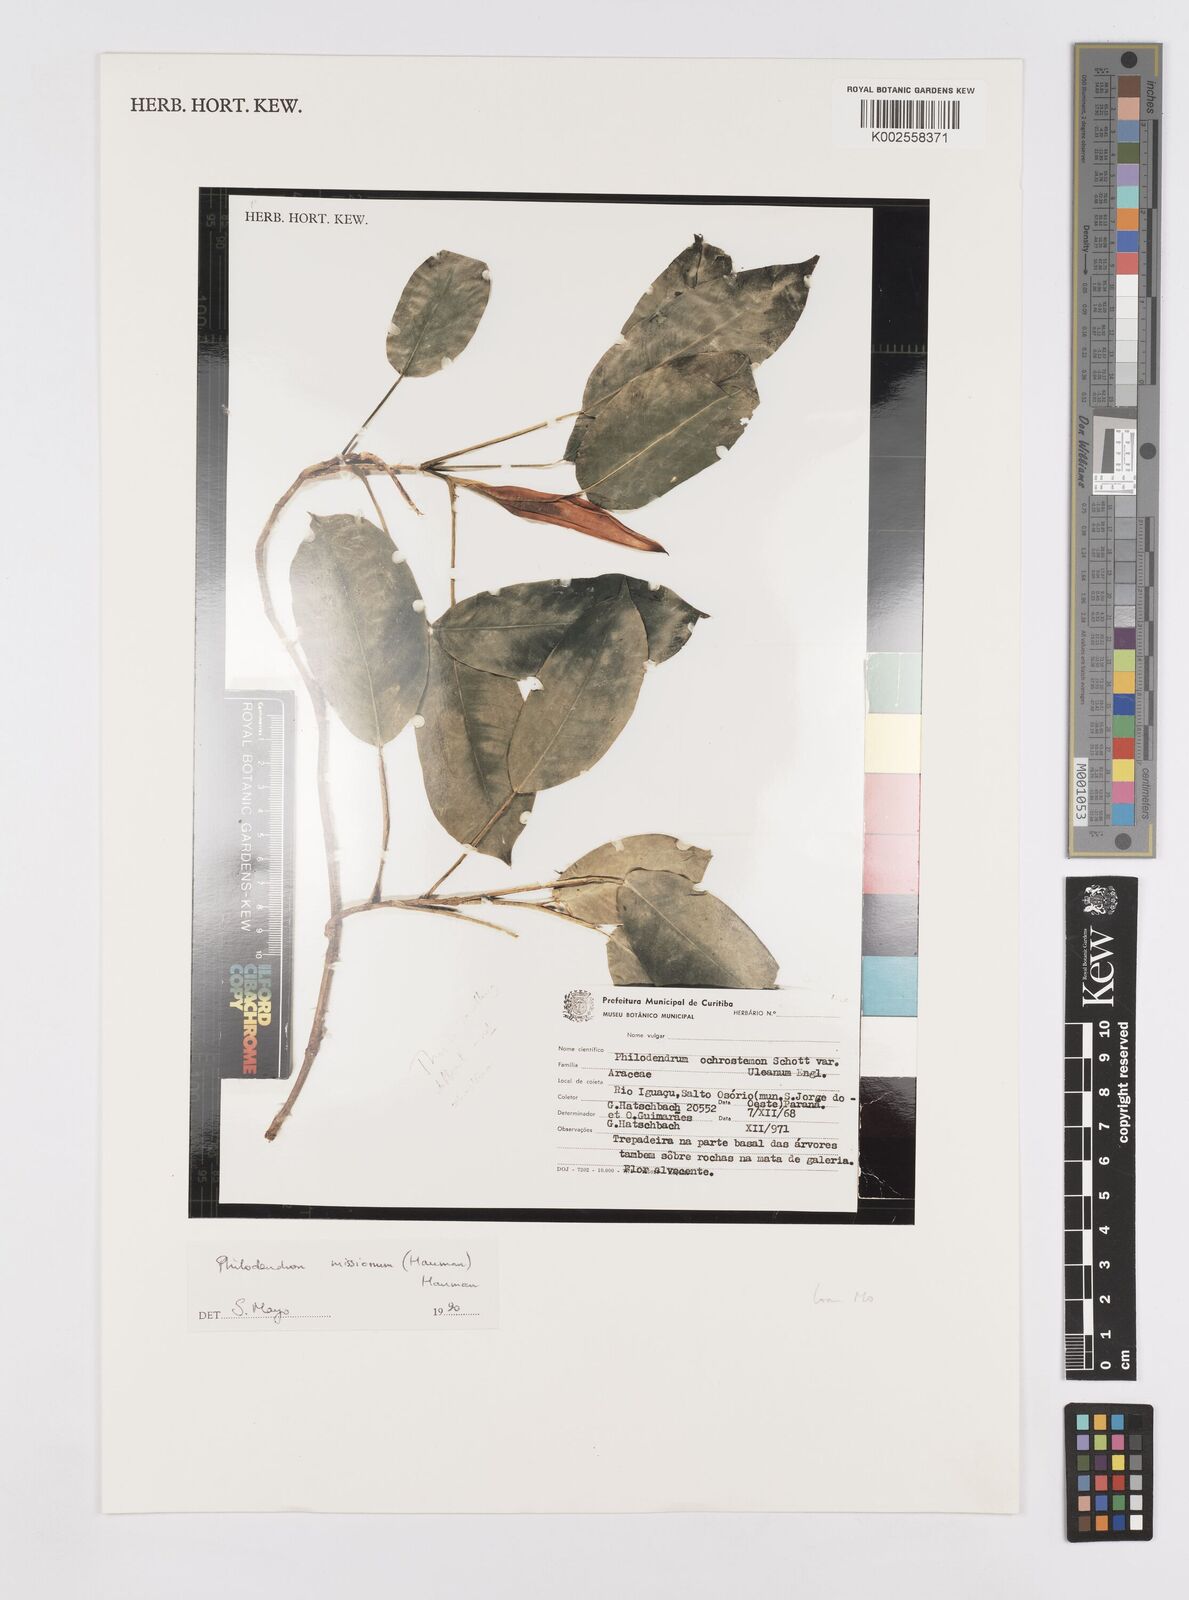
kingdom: Plantae
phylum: Tracheophyta
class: Liliopsida
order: Alismatales
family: Araceae
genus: Philodendron
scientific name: Philodendron missionum
